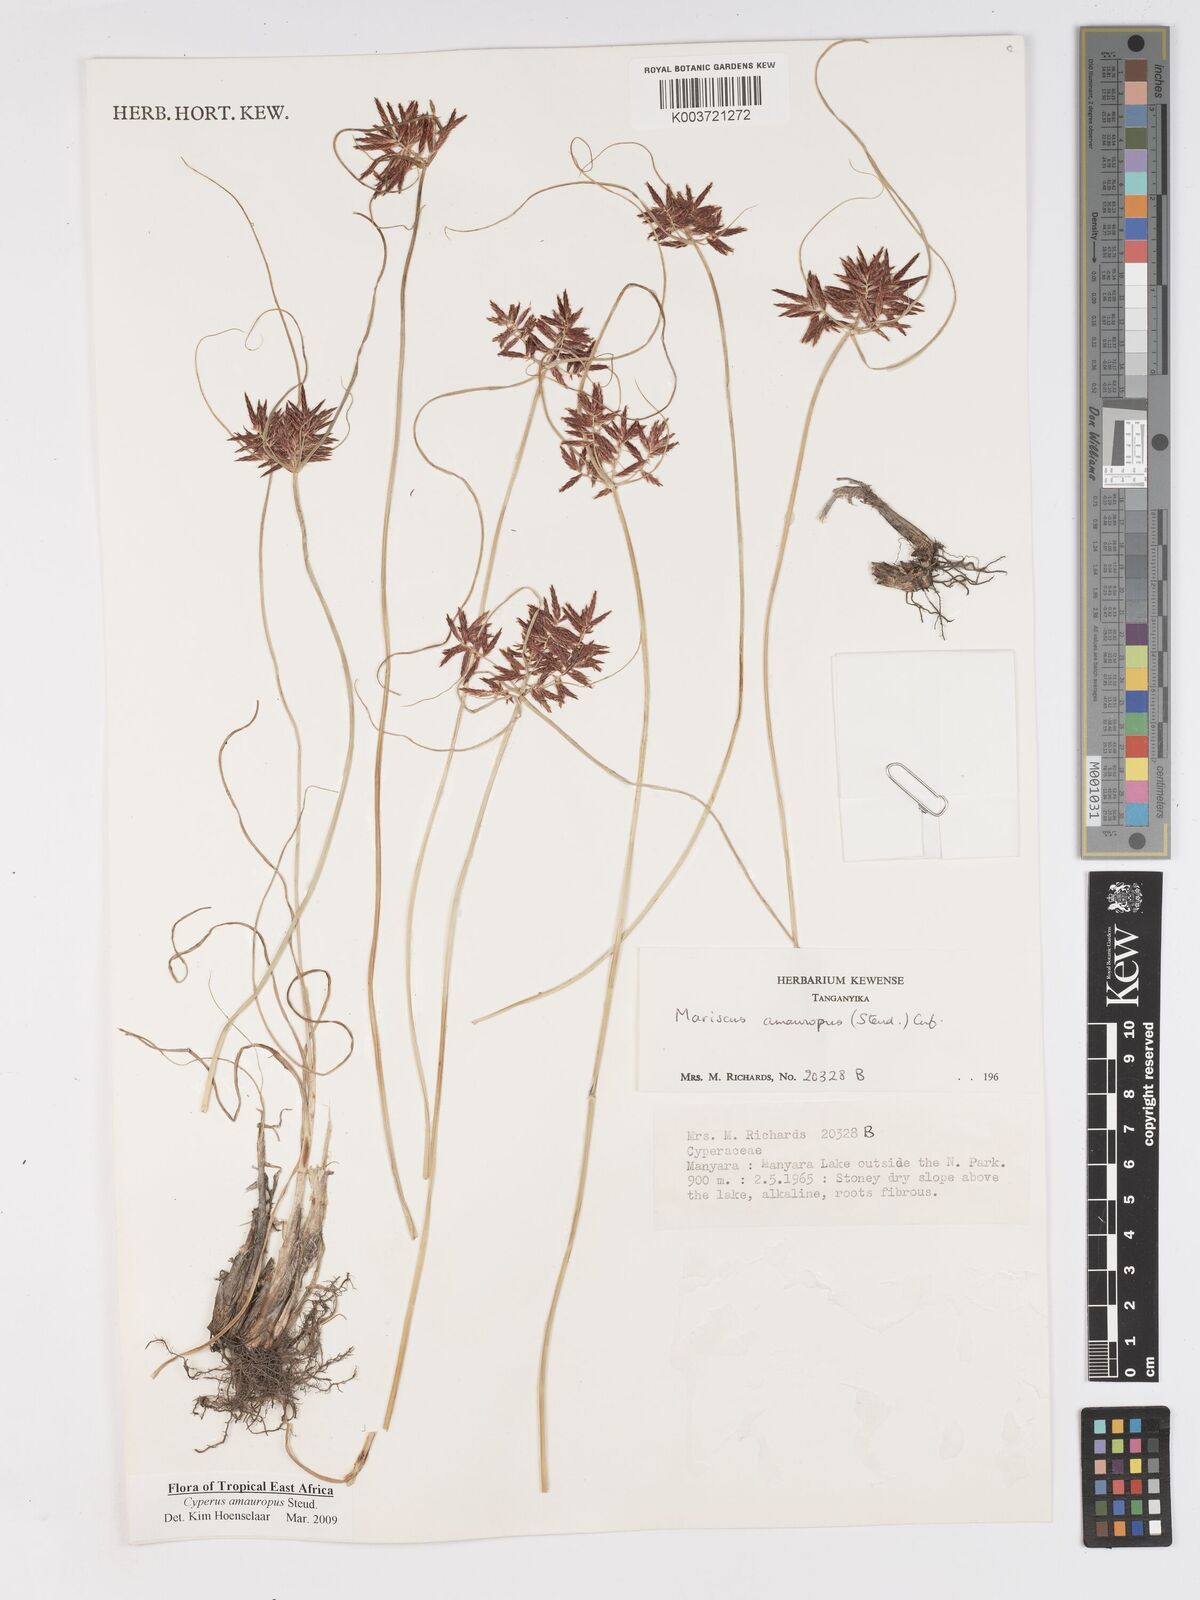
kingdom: Plantae
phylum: Tracheophyta
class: Liliopsida
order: Poales
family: Cyperaceae
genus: Cyperus
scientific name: Cyperus amauropus
